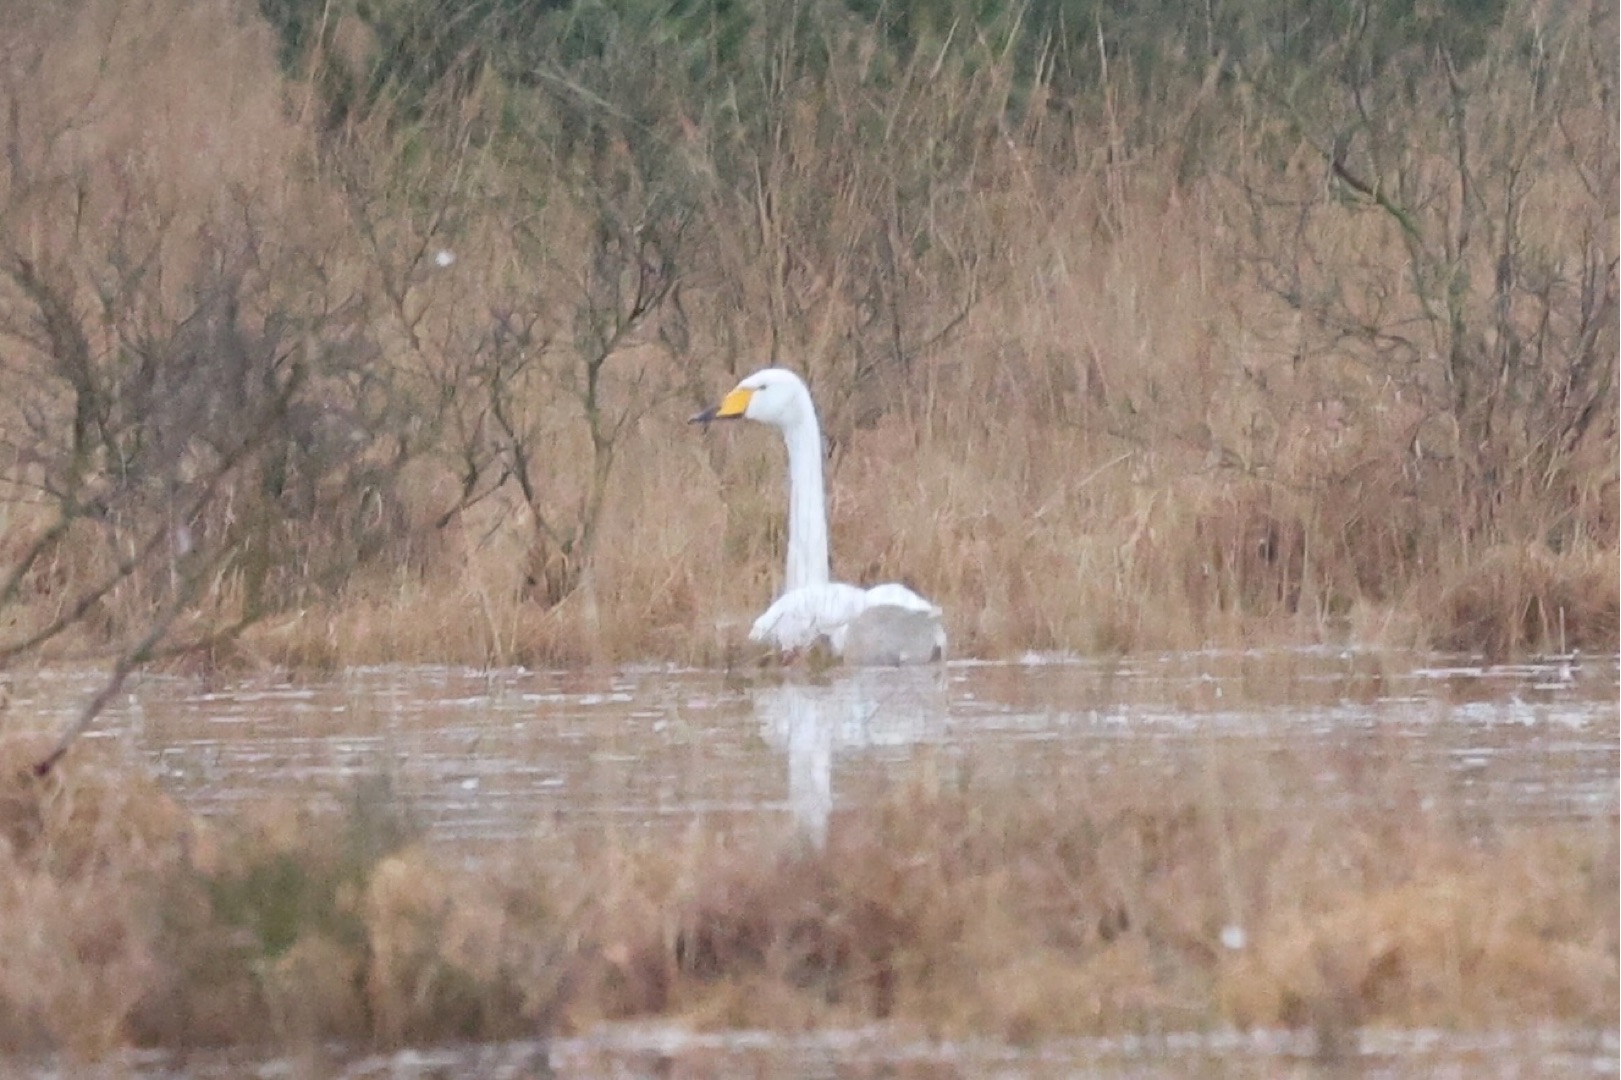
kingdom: Animalia
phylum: Chordata
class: Aves
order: Anseriformes
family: Anatidae
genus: Cygnus
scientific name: Cygnus cygnus
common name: Sangsvane
